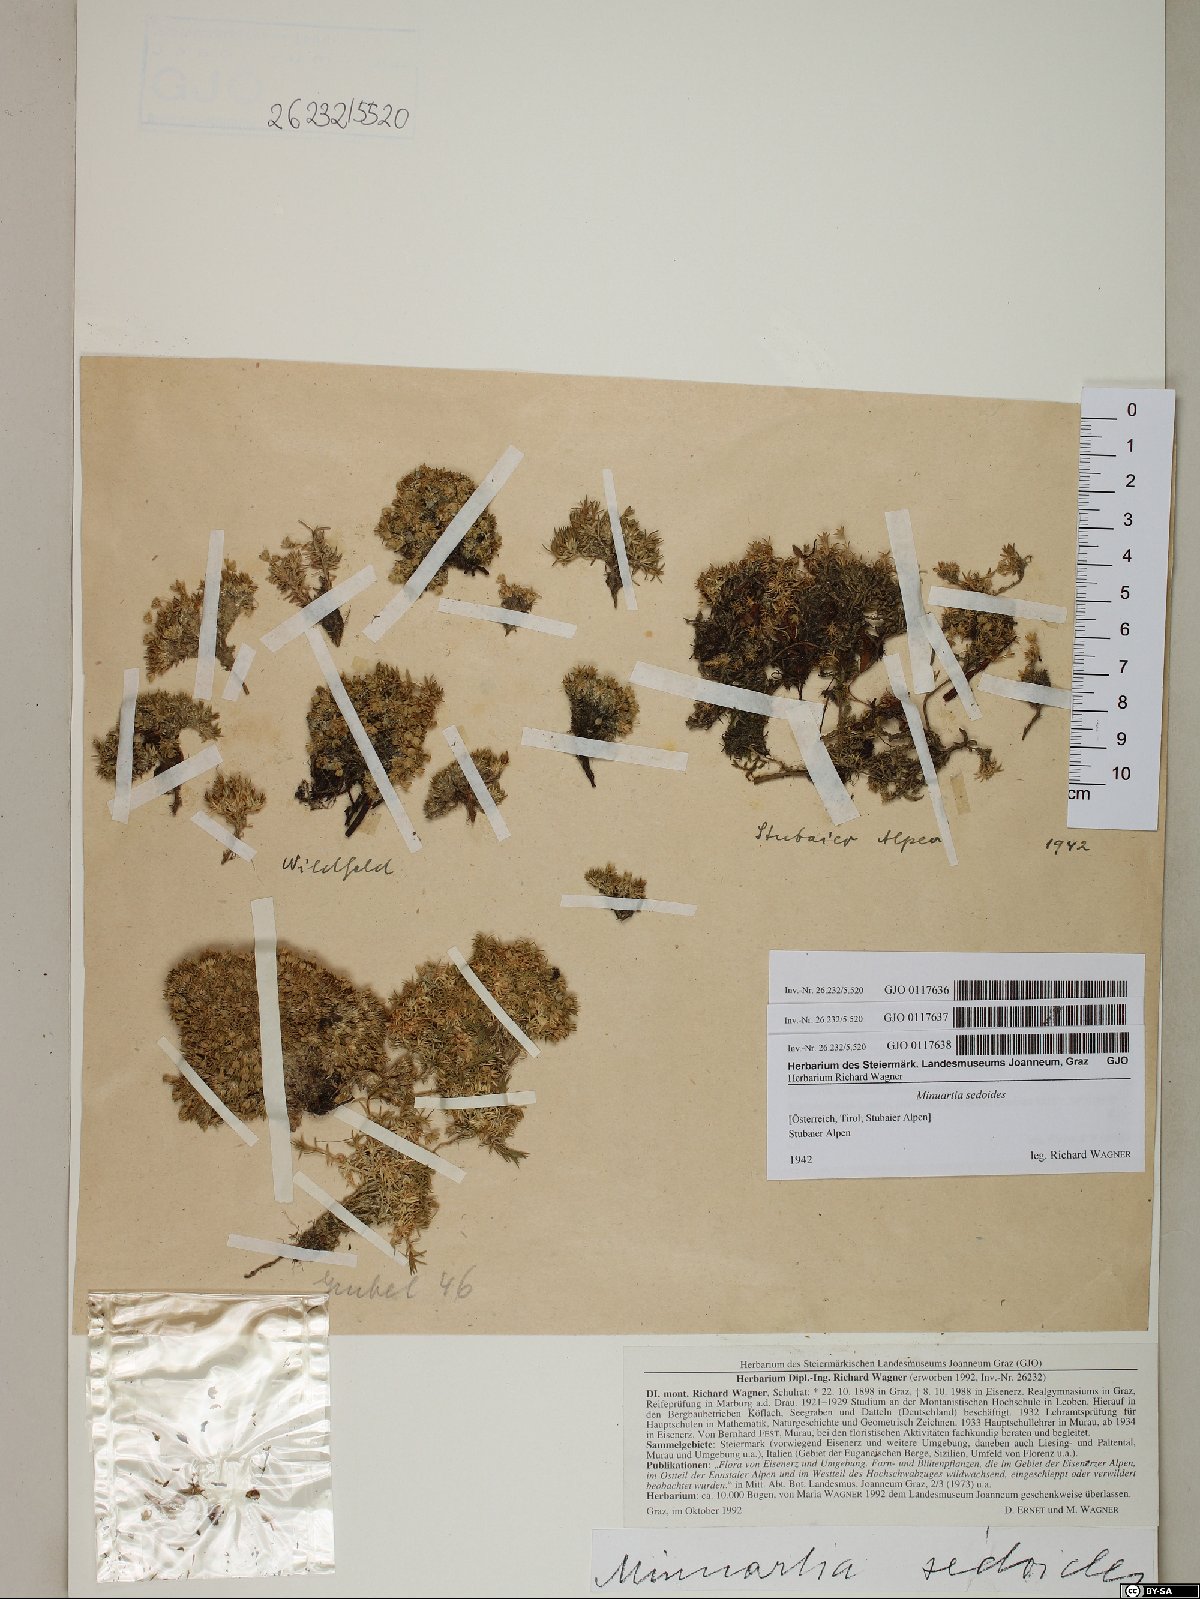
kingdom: Plantae
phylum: Tracheophyta
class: Magnoliopsida
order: Caryophyllales
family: Caryophyllaceae
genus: Cherleria
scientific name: Cherleria sedoides
